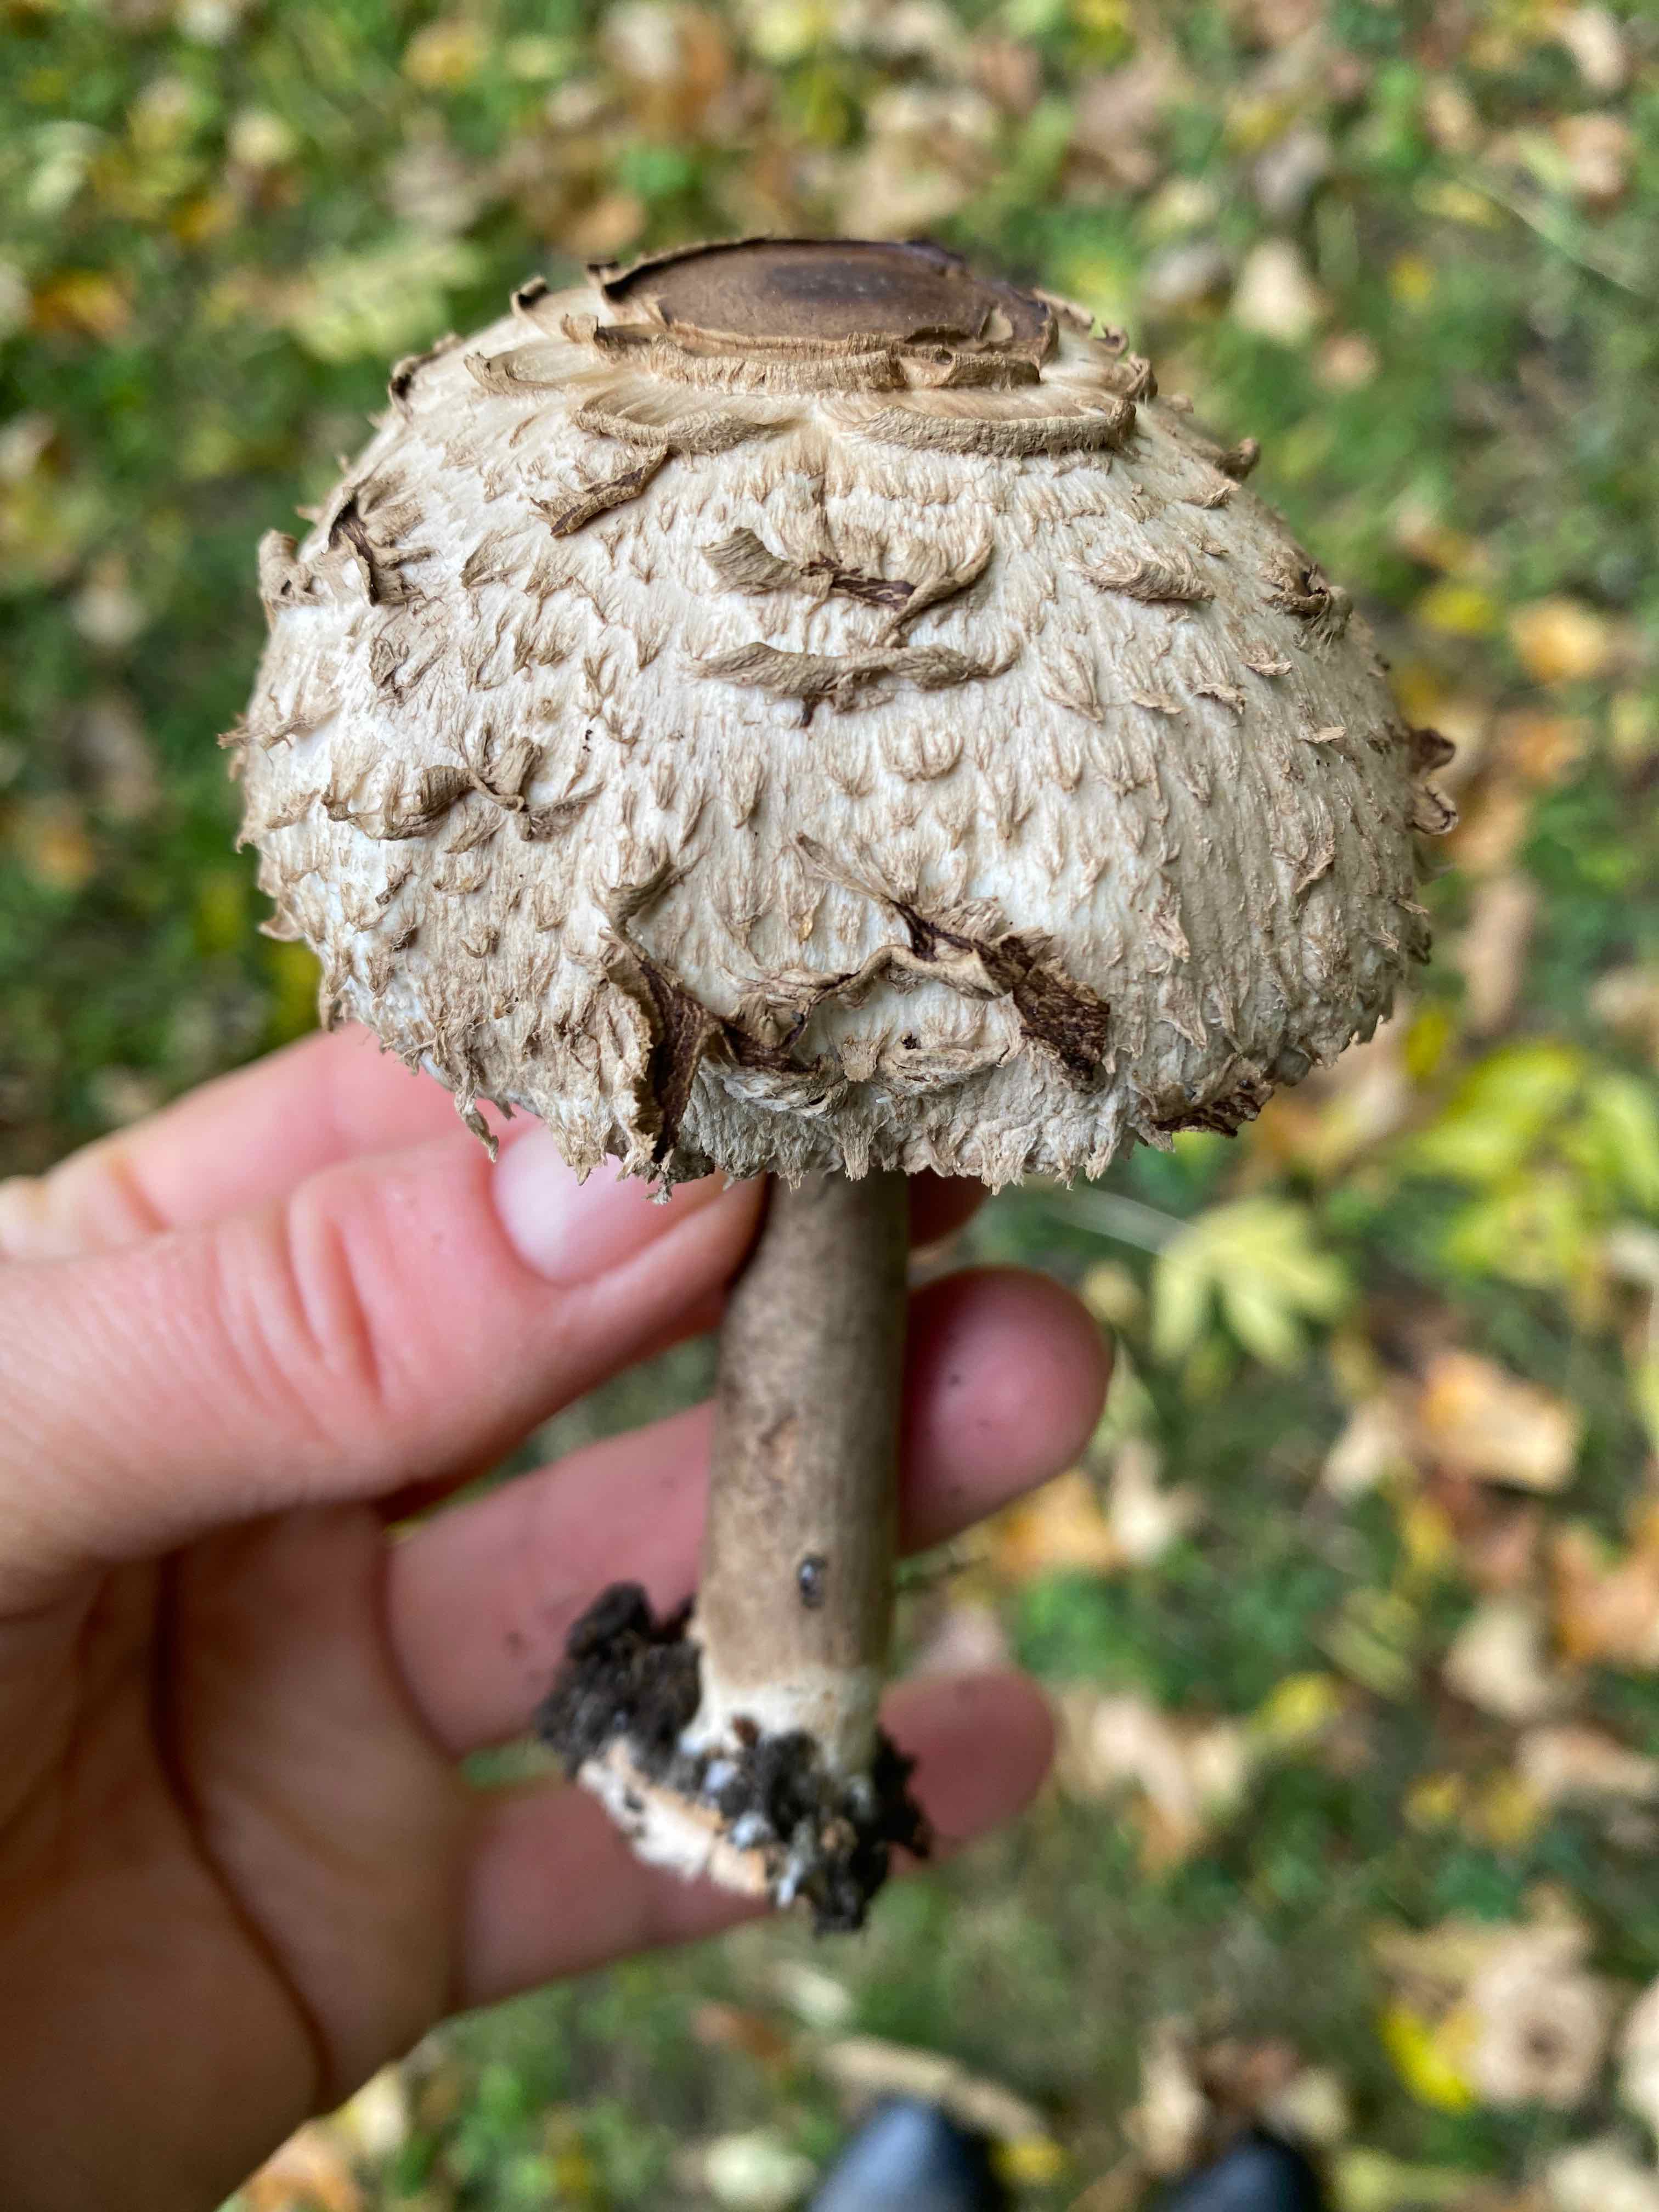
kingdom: Fungi
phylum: Basidiomycota
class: Agaricomycetes
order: Agaricales
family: Agaricaceae
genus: Chlorophyllum
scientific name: Chlorophyllum olivieri
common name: almindelig rabarberhat
